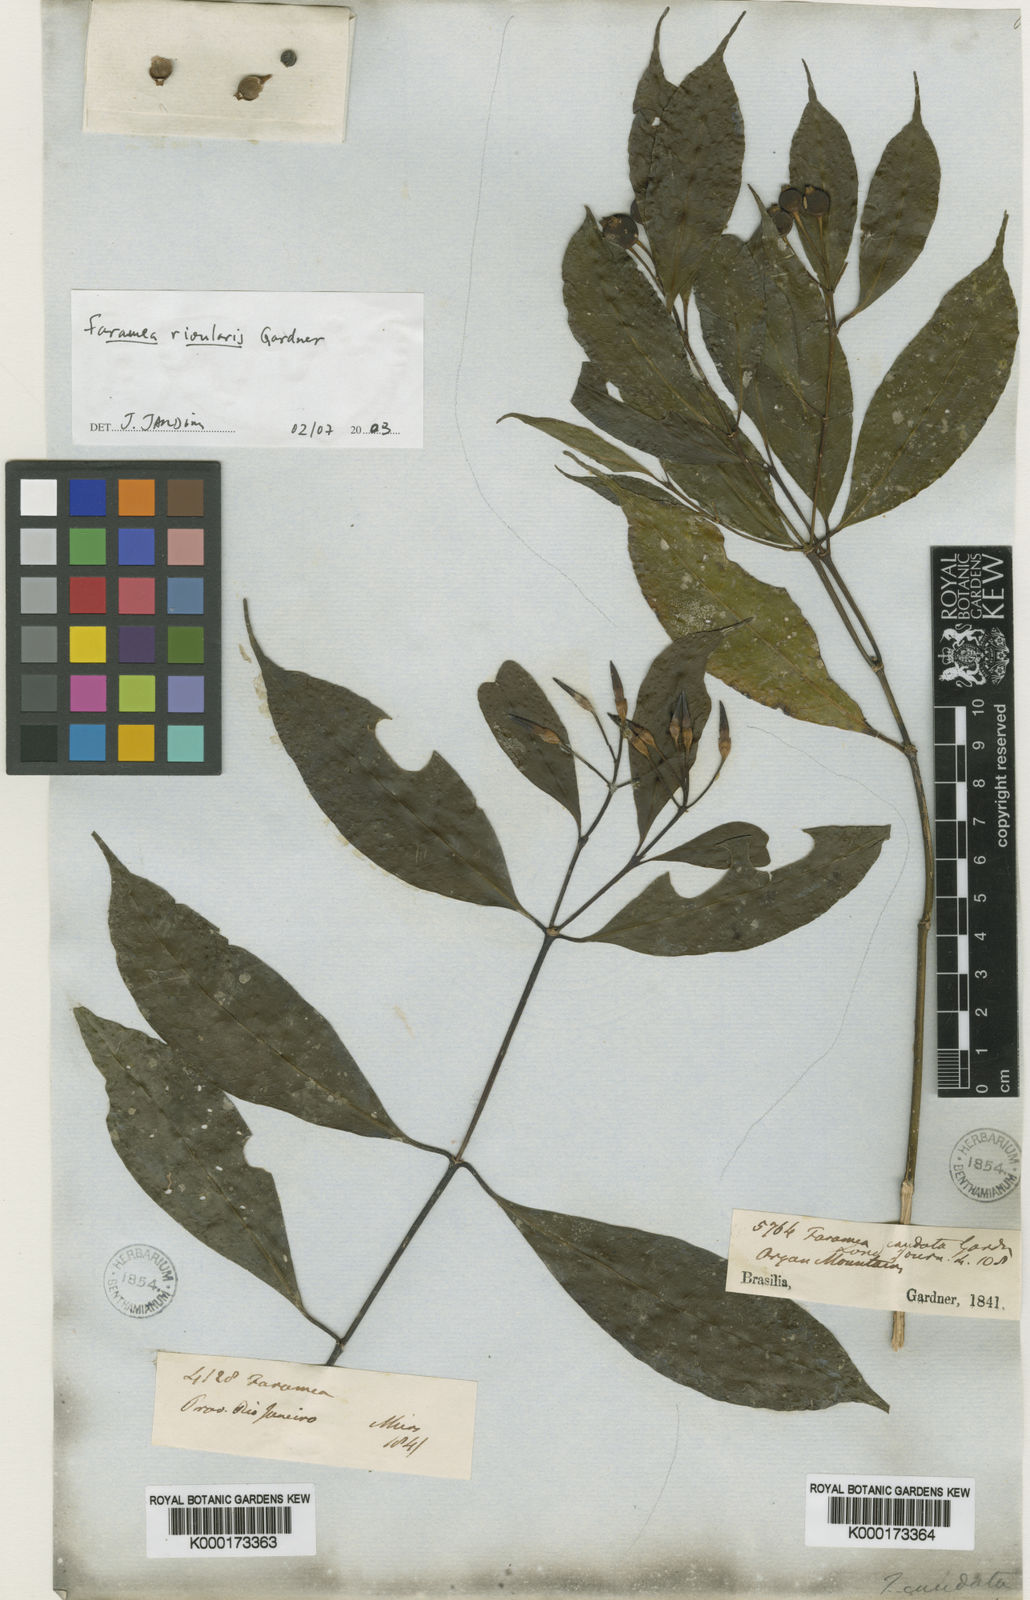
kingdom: Plantae
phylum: Tracheophyta
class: Magnoliopsida
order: Gentianales
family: Rubiaceae
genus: Faramea
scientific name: Faramea caudata
